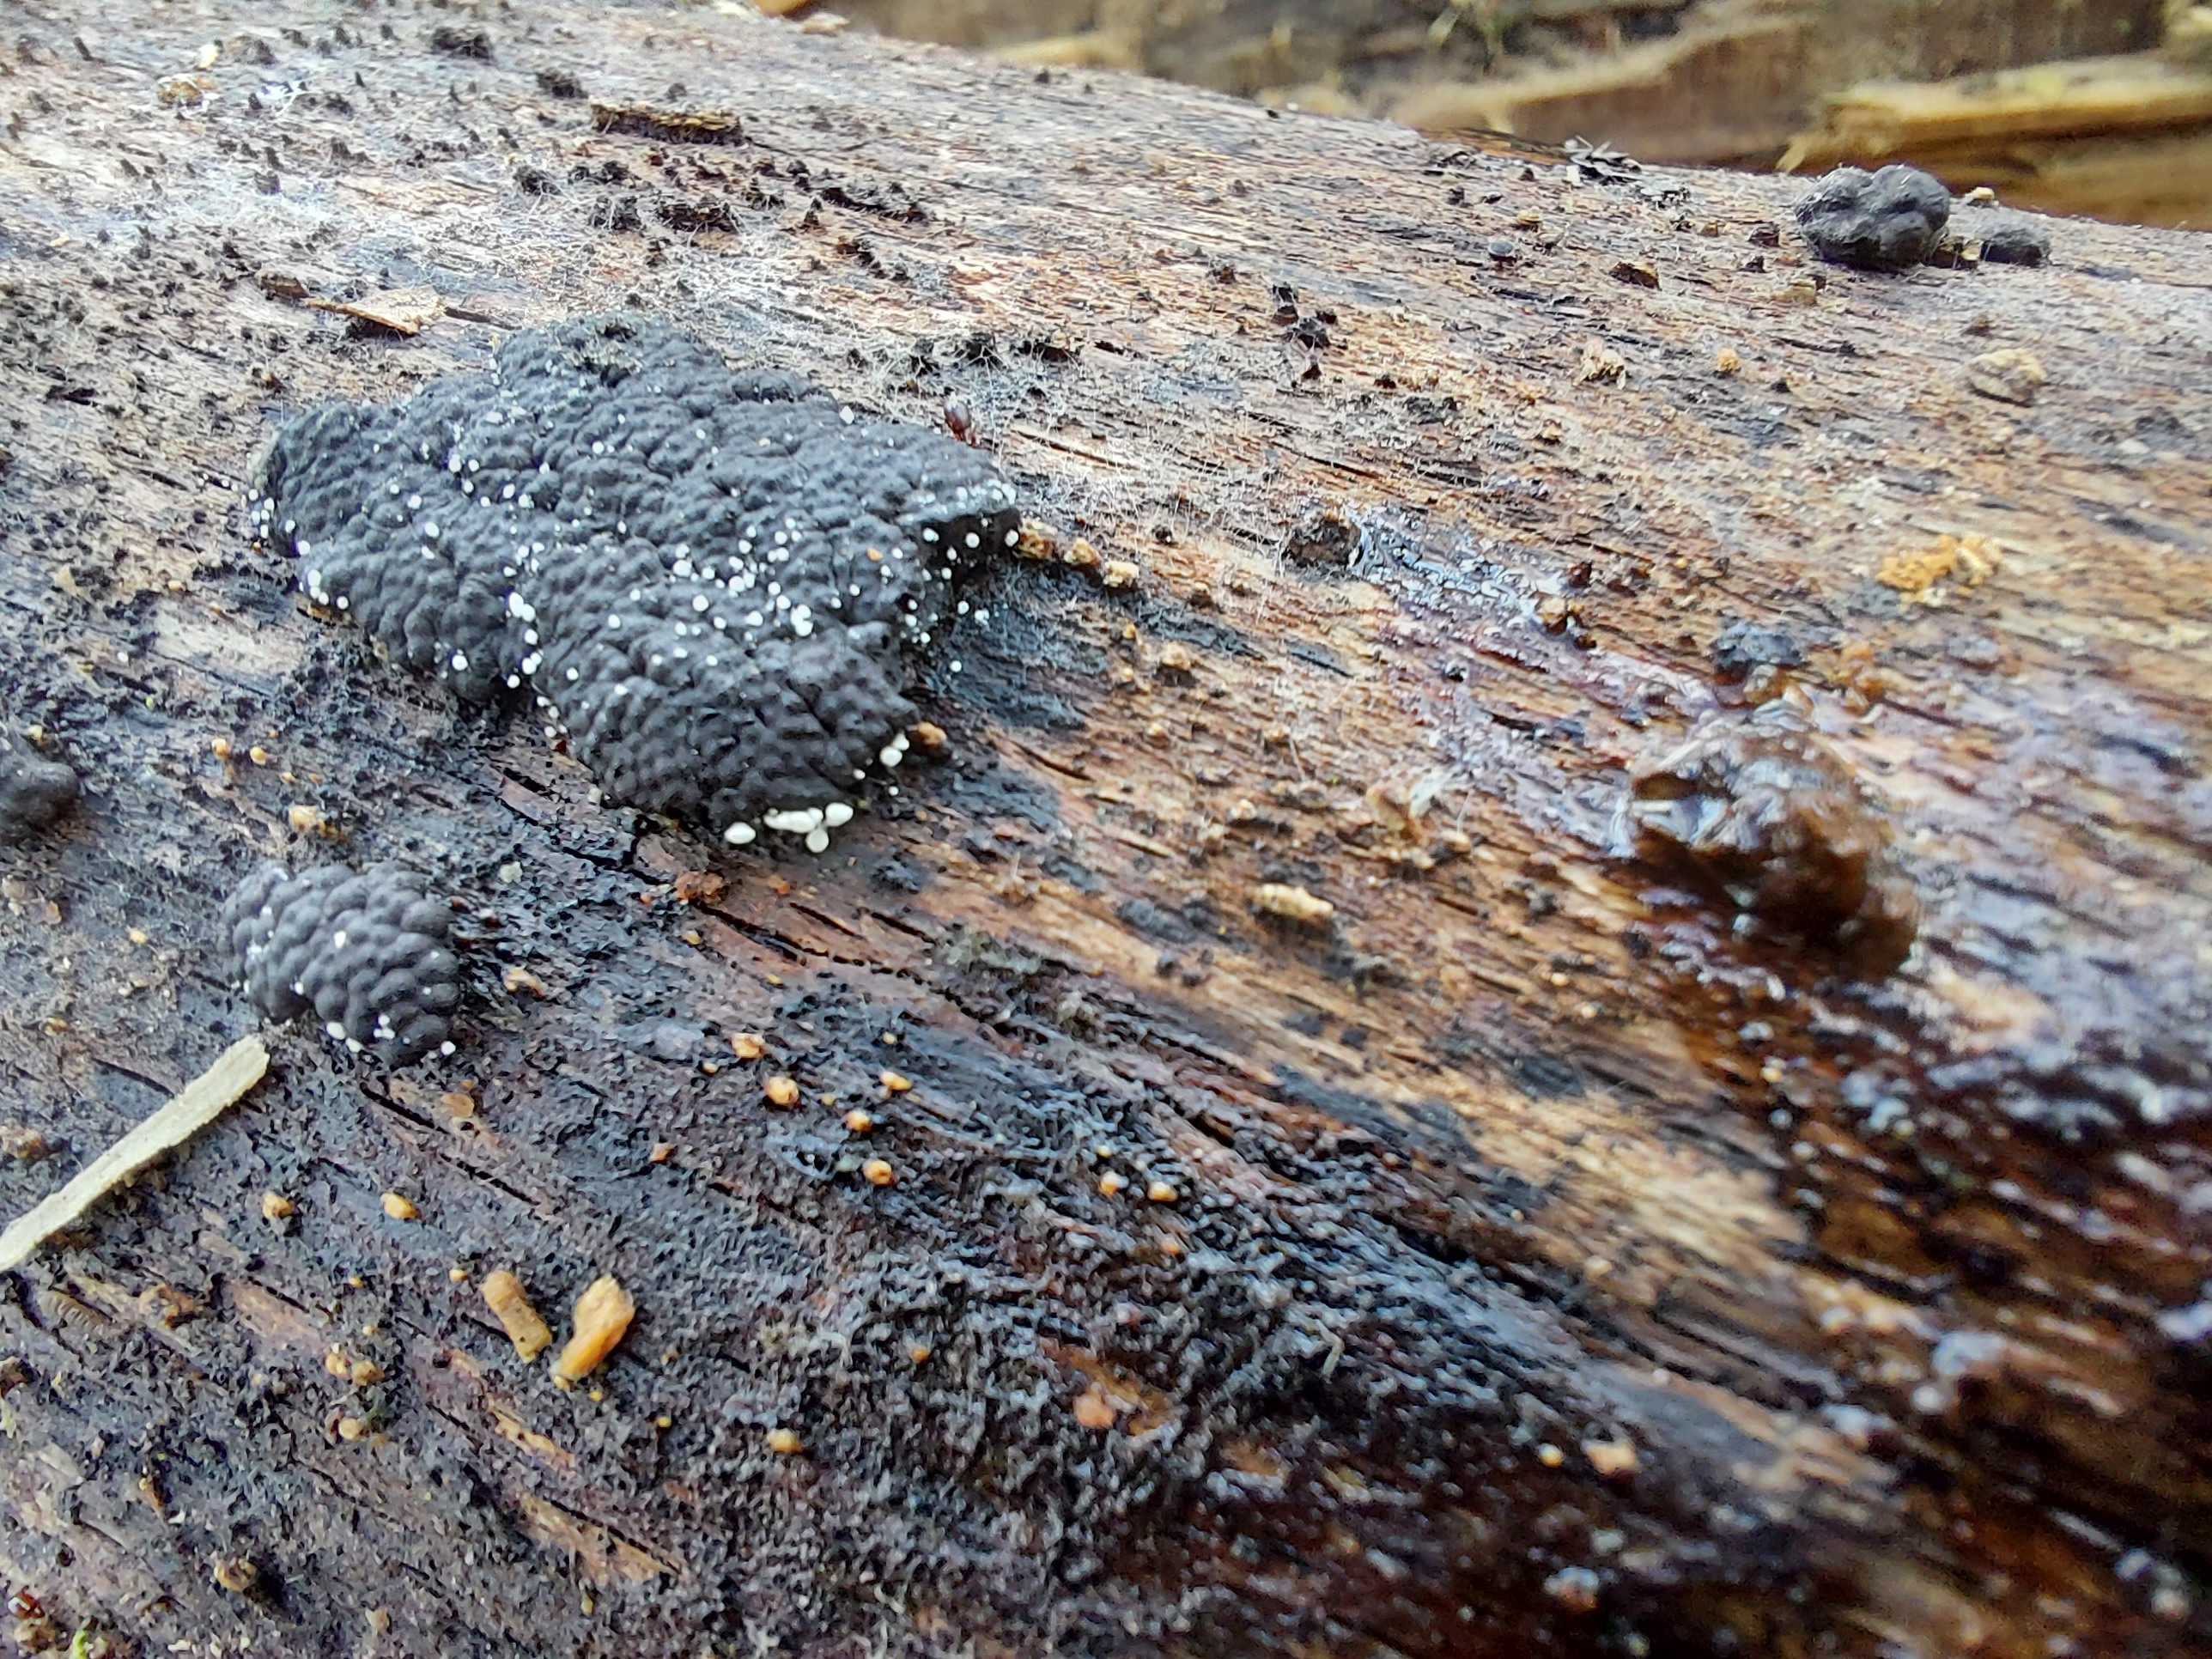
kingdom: Fungi
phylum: Ascomycota
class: Leotiomycetes
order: Helotiales
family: Hyaloscyphaceae
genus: Polydesmia
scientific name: Polydesmia pruinosa
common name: dunskive
